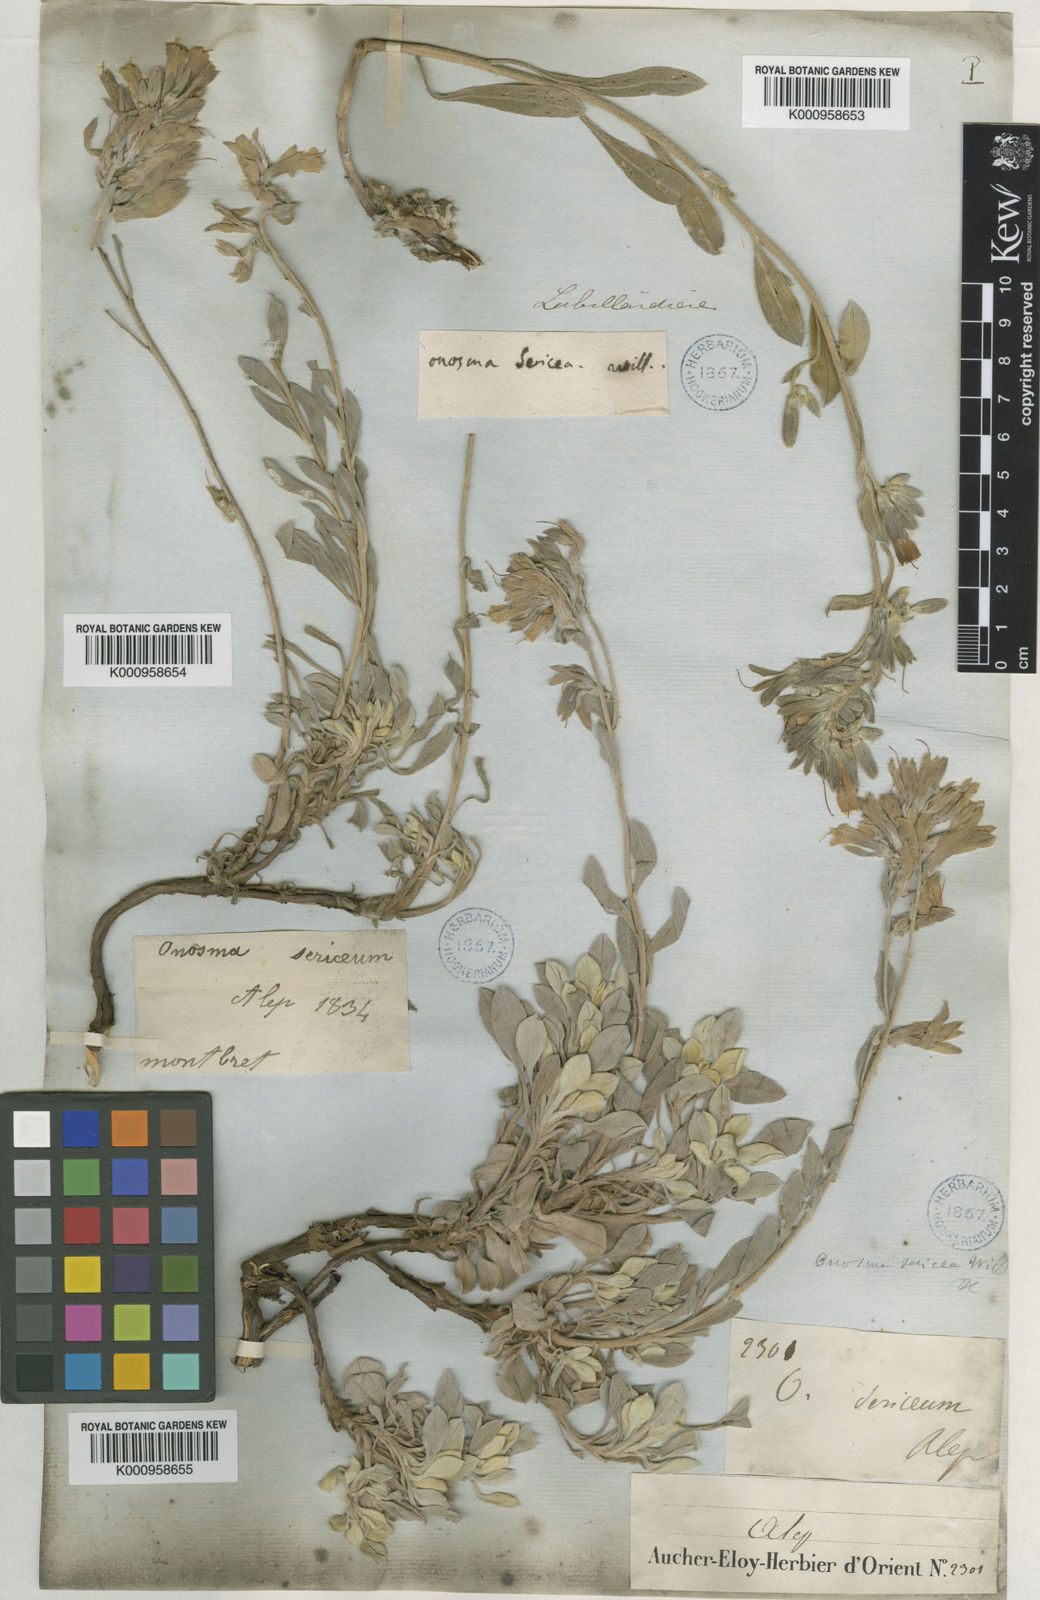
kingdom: Plantae
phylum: Tracheophyta
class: Magnoliopsida
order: Boraginales
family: Boraginaceae
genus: Onosma
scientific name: Onosma isaurica
